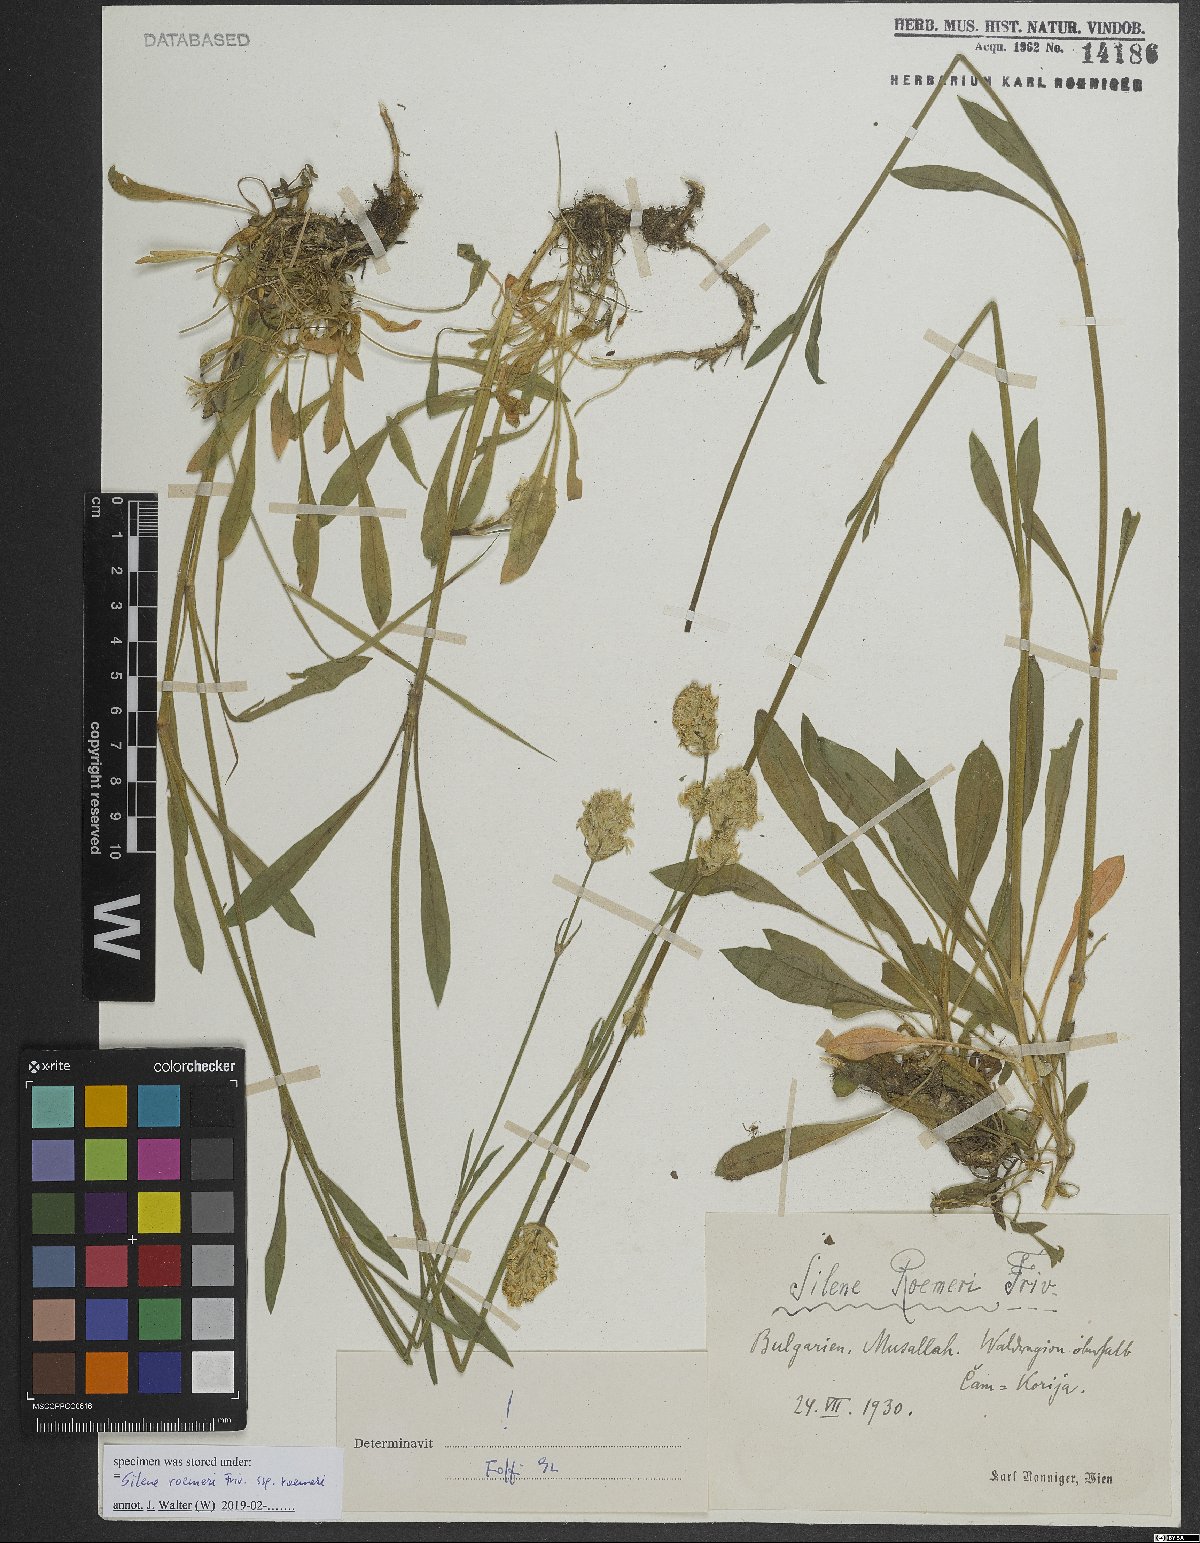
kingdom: Plantae
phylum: Tracheophyta
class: Magnoliopsida
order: Caryophyllales
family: Caryophyllaceae
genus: Silene
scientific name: Silene roemeri
